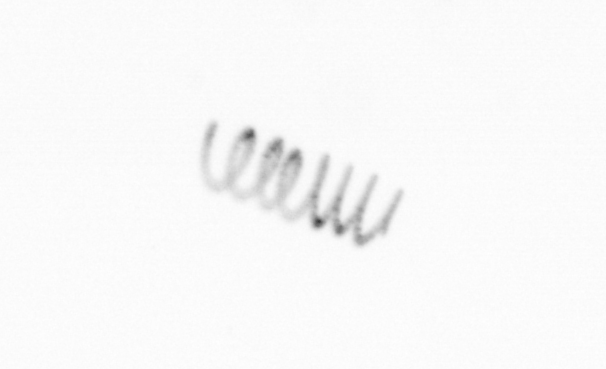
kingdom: Chromista
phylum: Ochrophyta
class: Bacillariophyceae
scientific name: Bacillariophyceae
